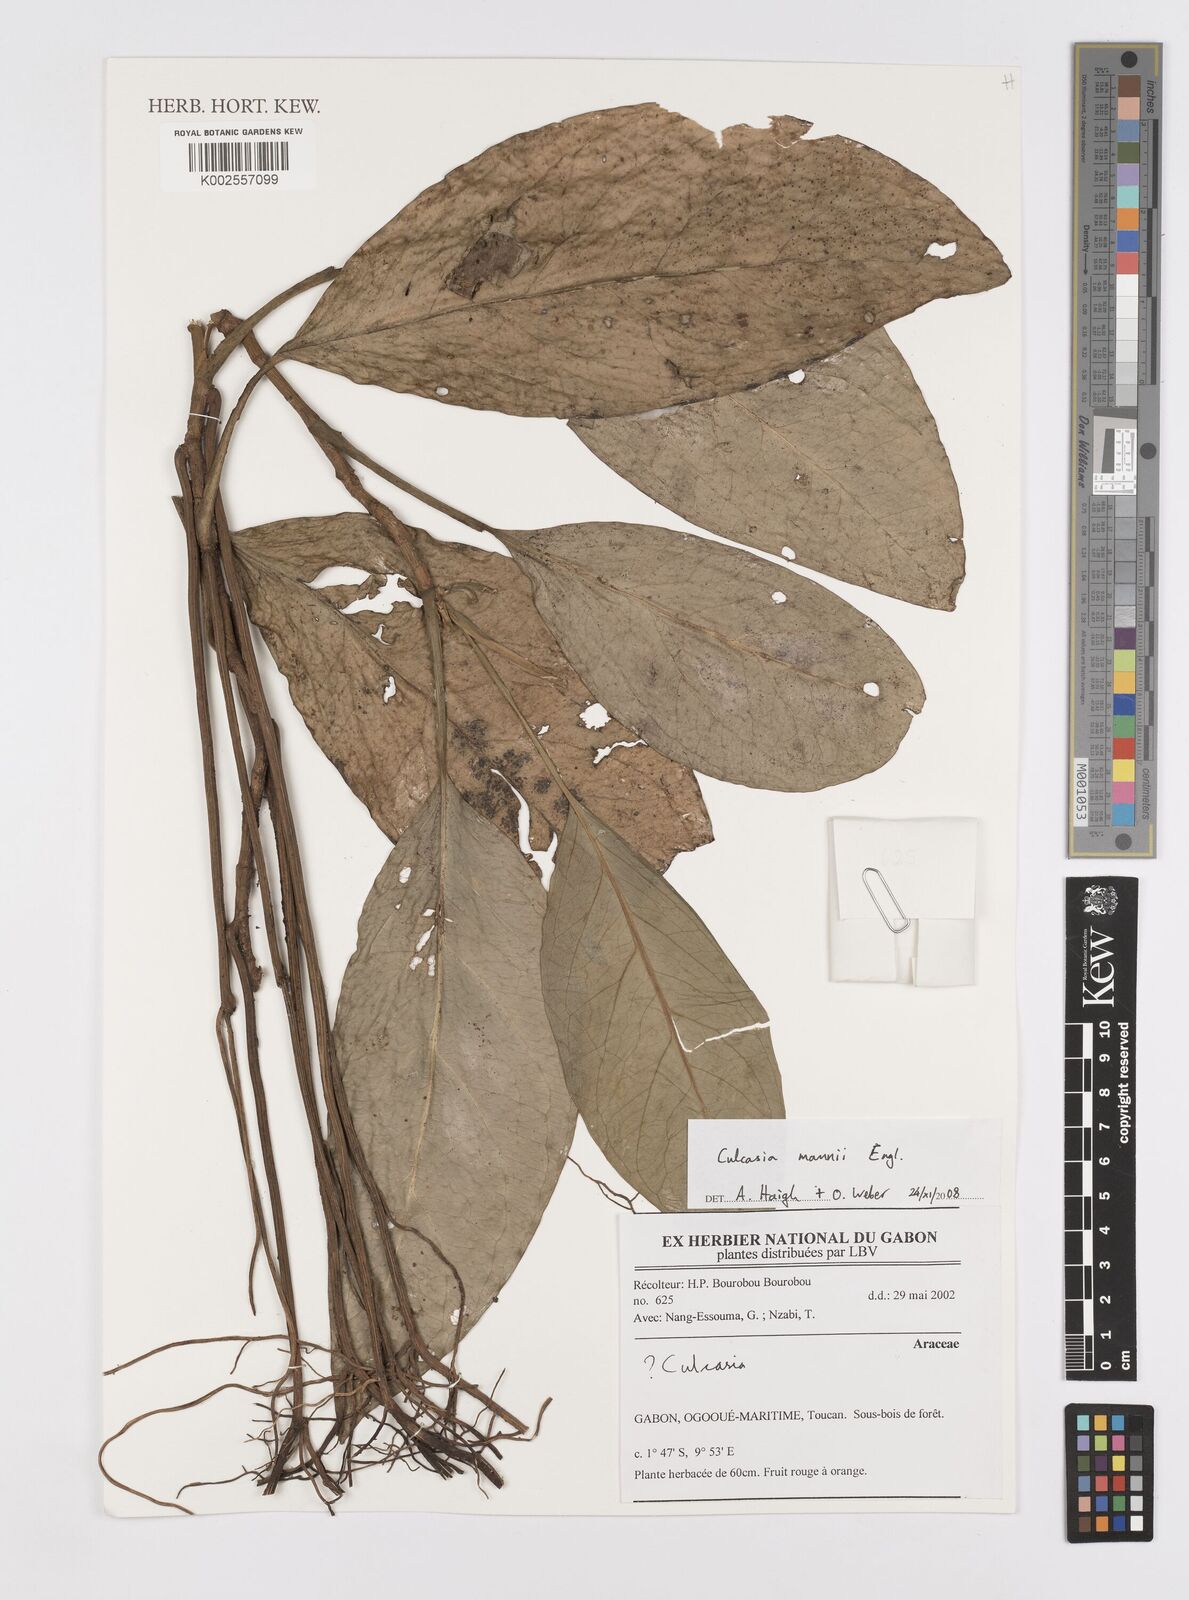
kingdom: Plantae
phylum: Tracheophyta
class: Liliopsida
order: Alismatales
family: Araceae
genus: Culcasia
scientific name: Culcasia mannii
